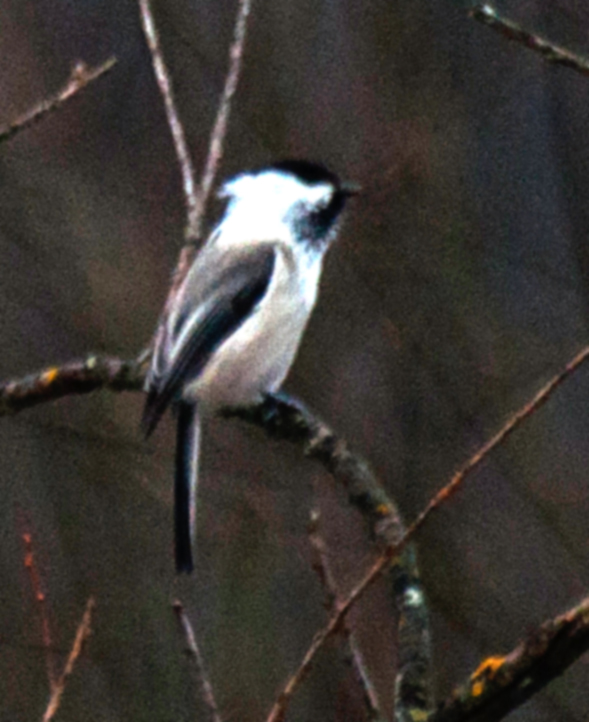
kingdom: Animalia
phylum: Chordata
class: Aves
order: Passeriformes
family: Paridae
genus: Poecile
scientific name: Poecile montanus
